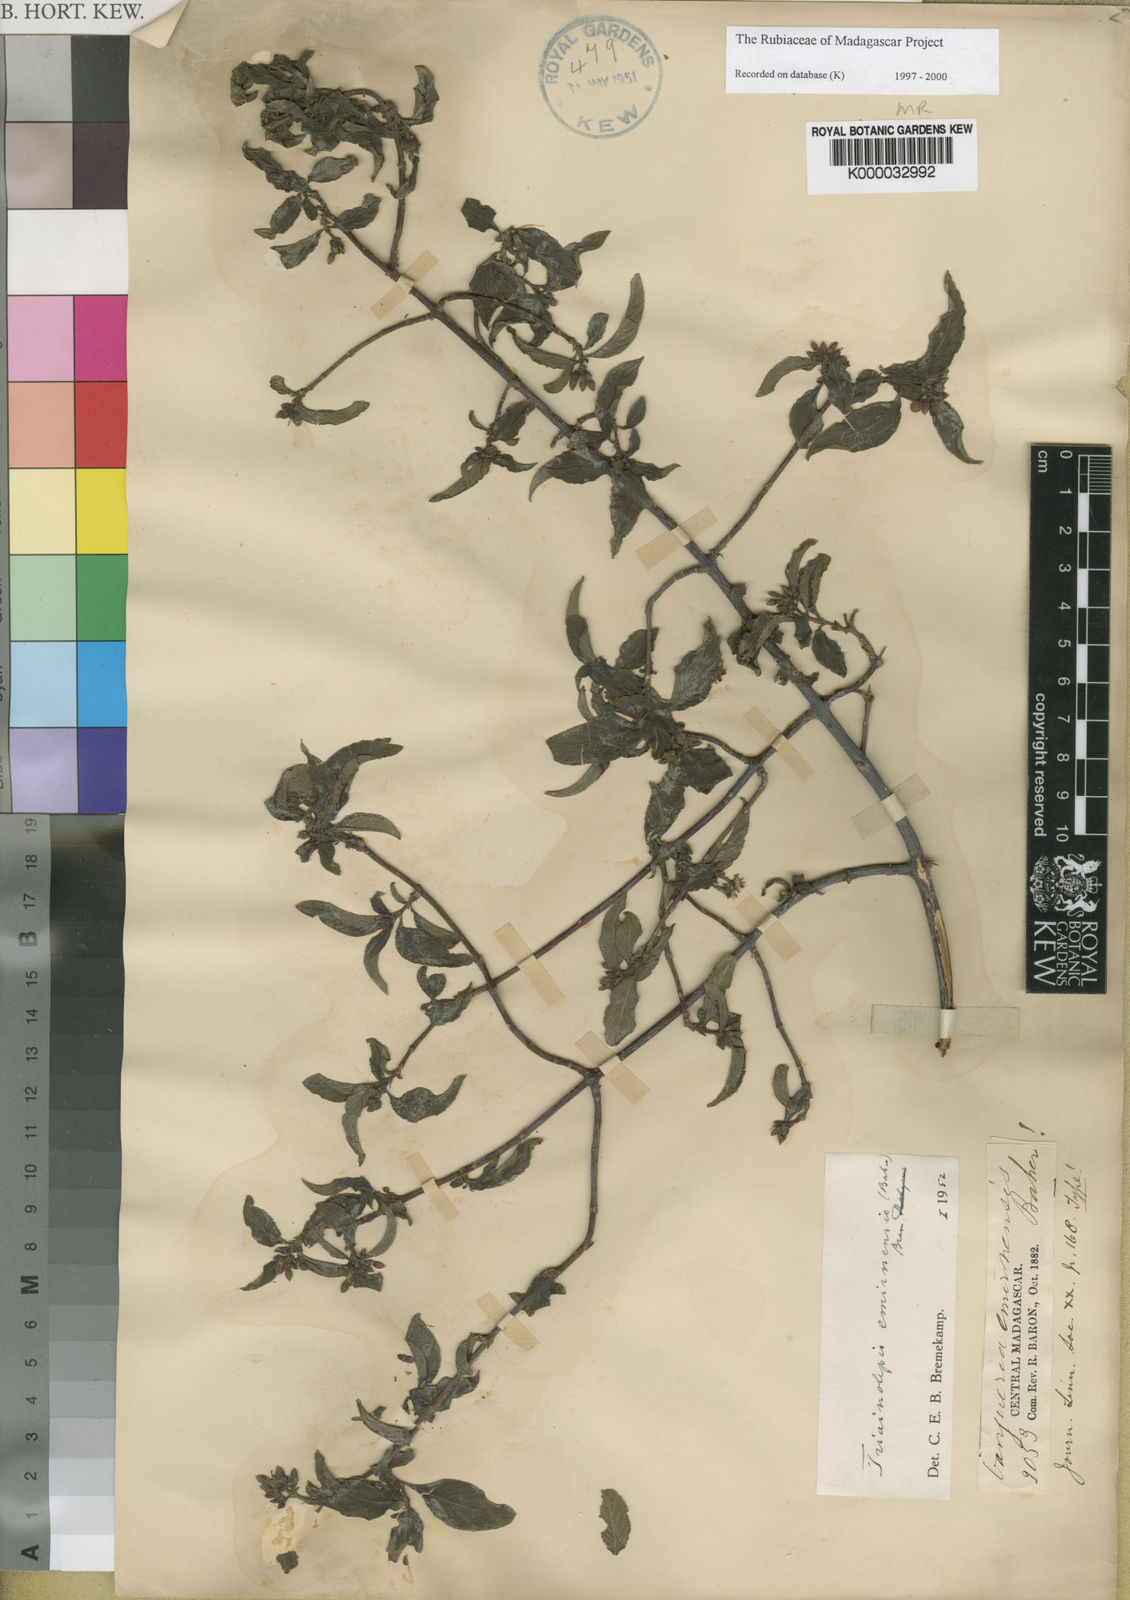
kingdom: Plantae
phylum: Tracheophyta
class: Magnoliopsida
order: Gentianales
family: Rubiaceae
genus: Triainolepis
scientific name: Triainolepis emirnensis
